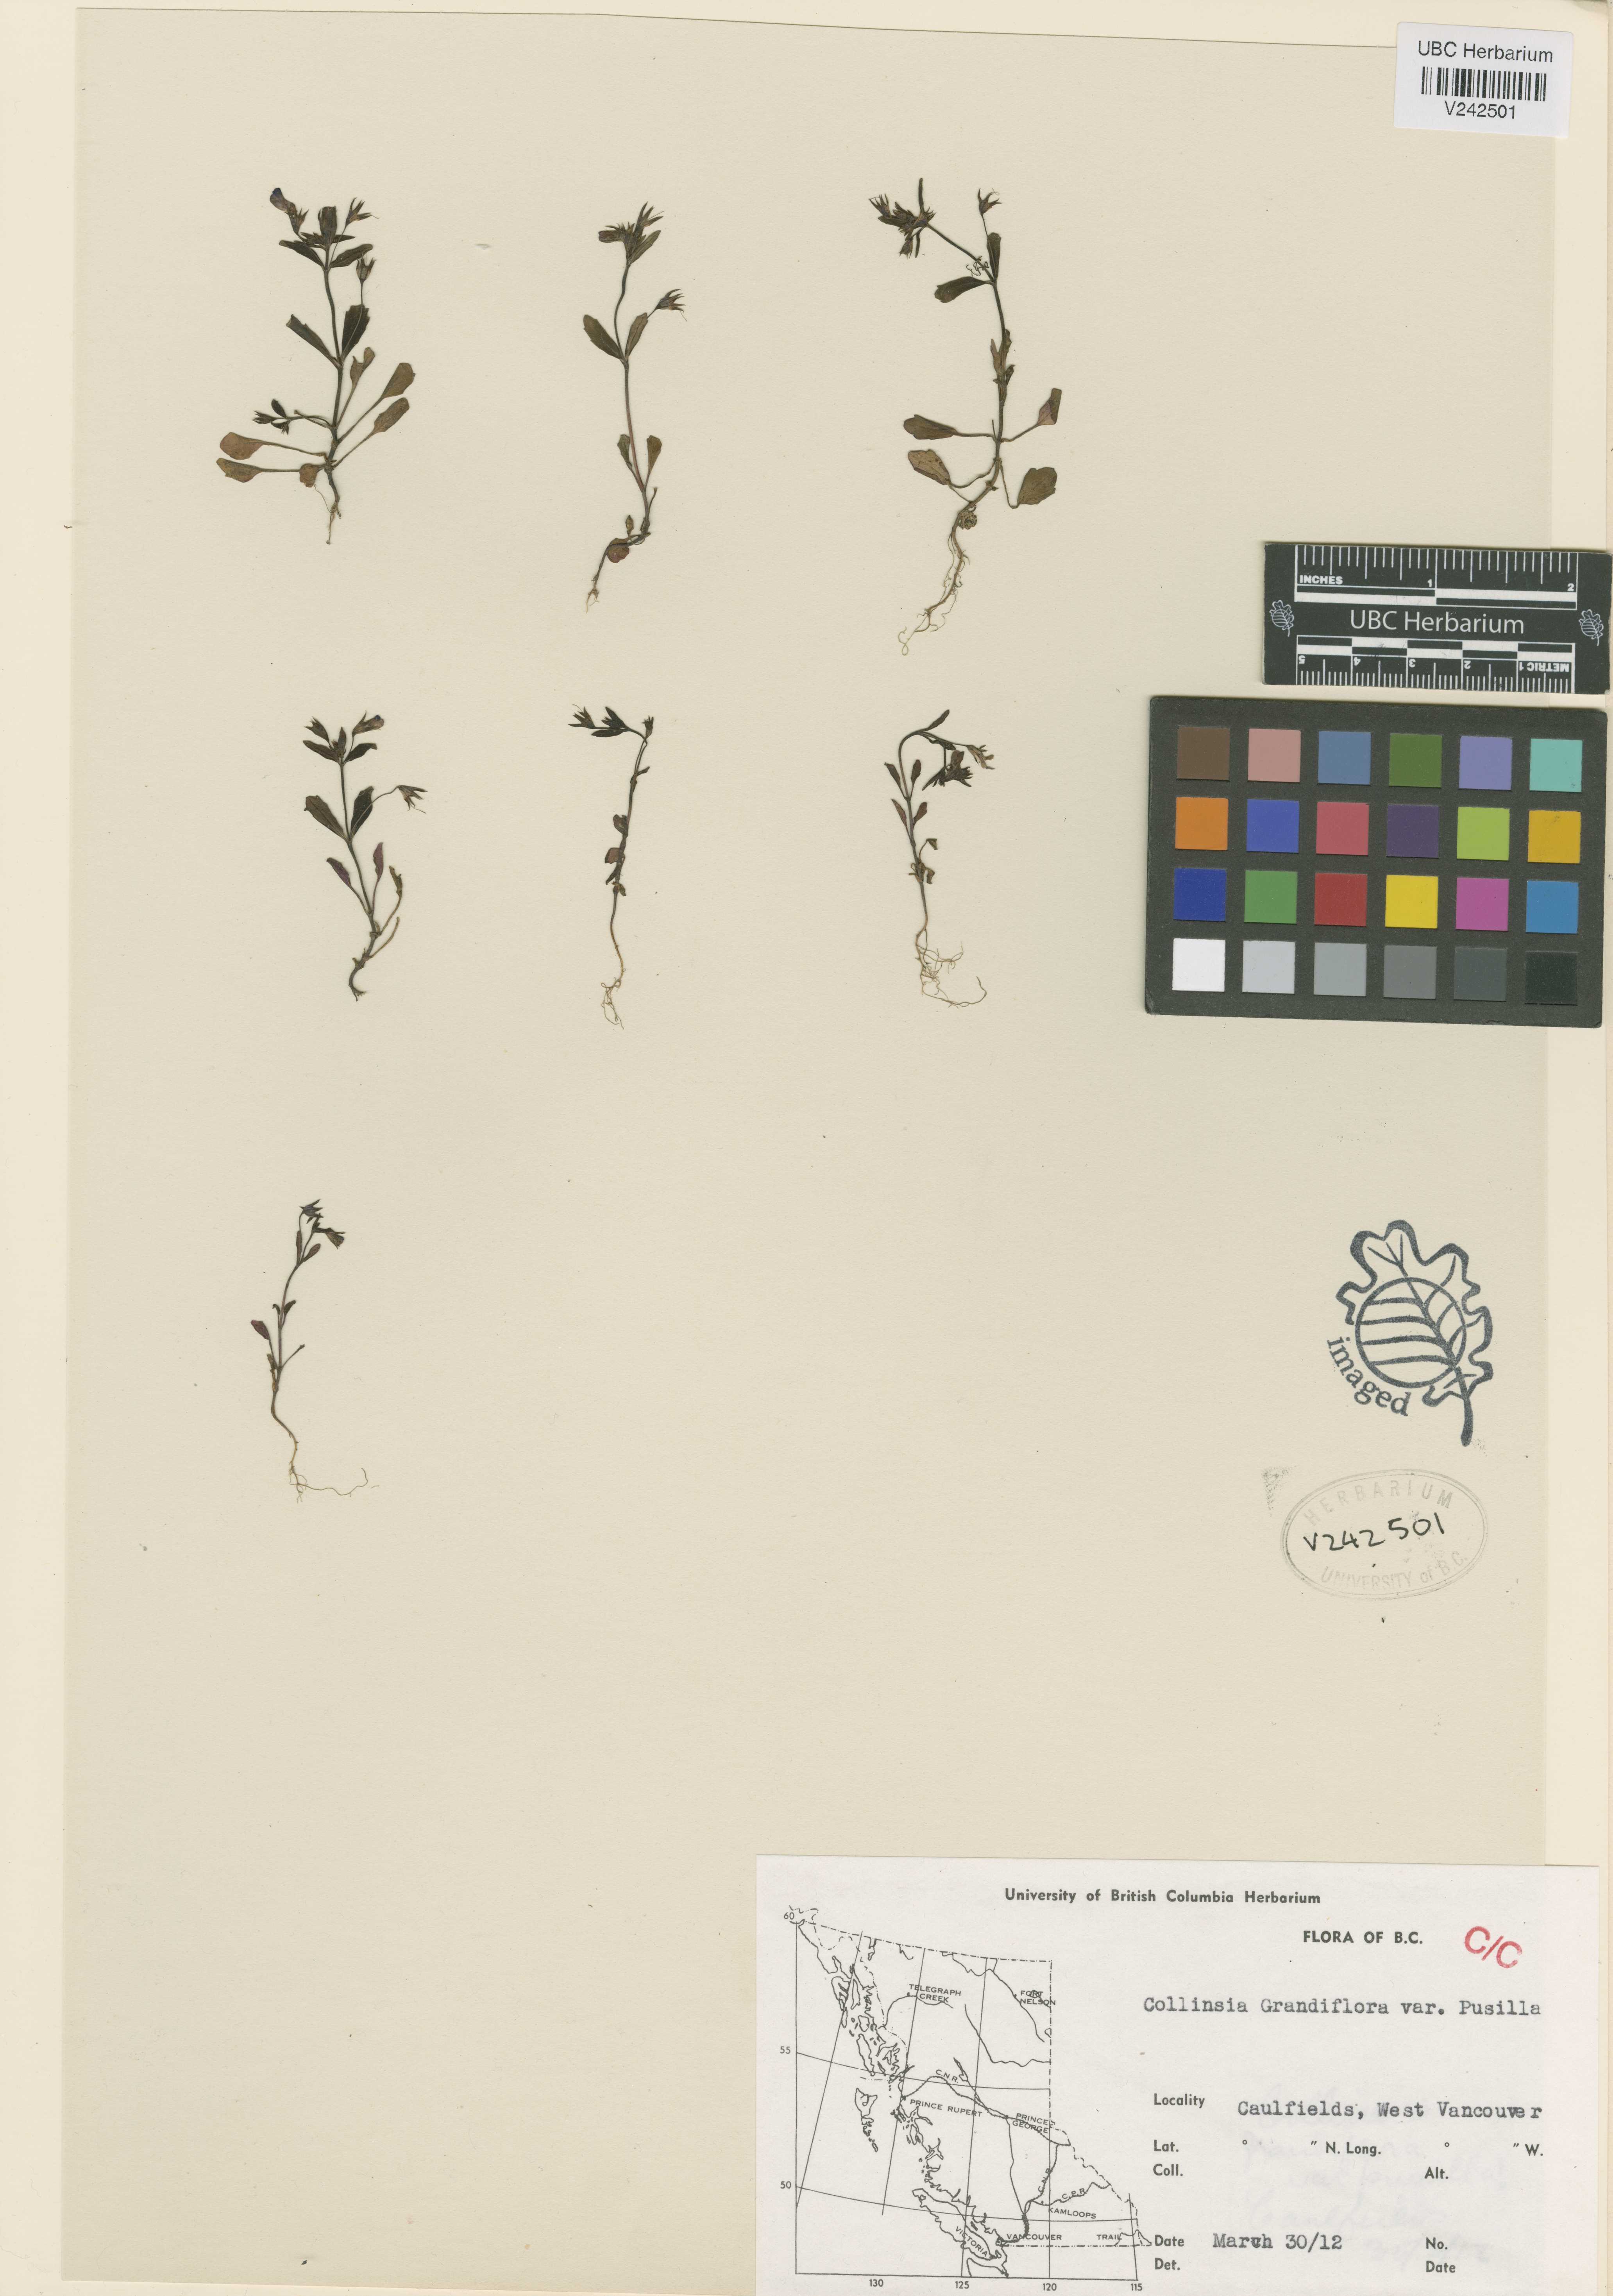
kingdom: Plantae
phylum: Tracheophyta
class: Magnoliopsida
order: Lamiales
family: Plantaginaceae
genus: Collinsia
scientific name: Collinsia grandiflora
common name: Large-flower blue-eyed-mary
